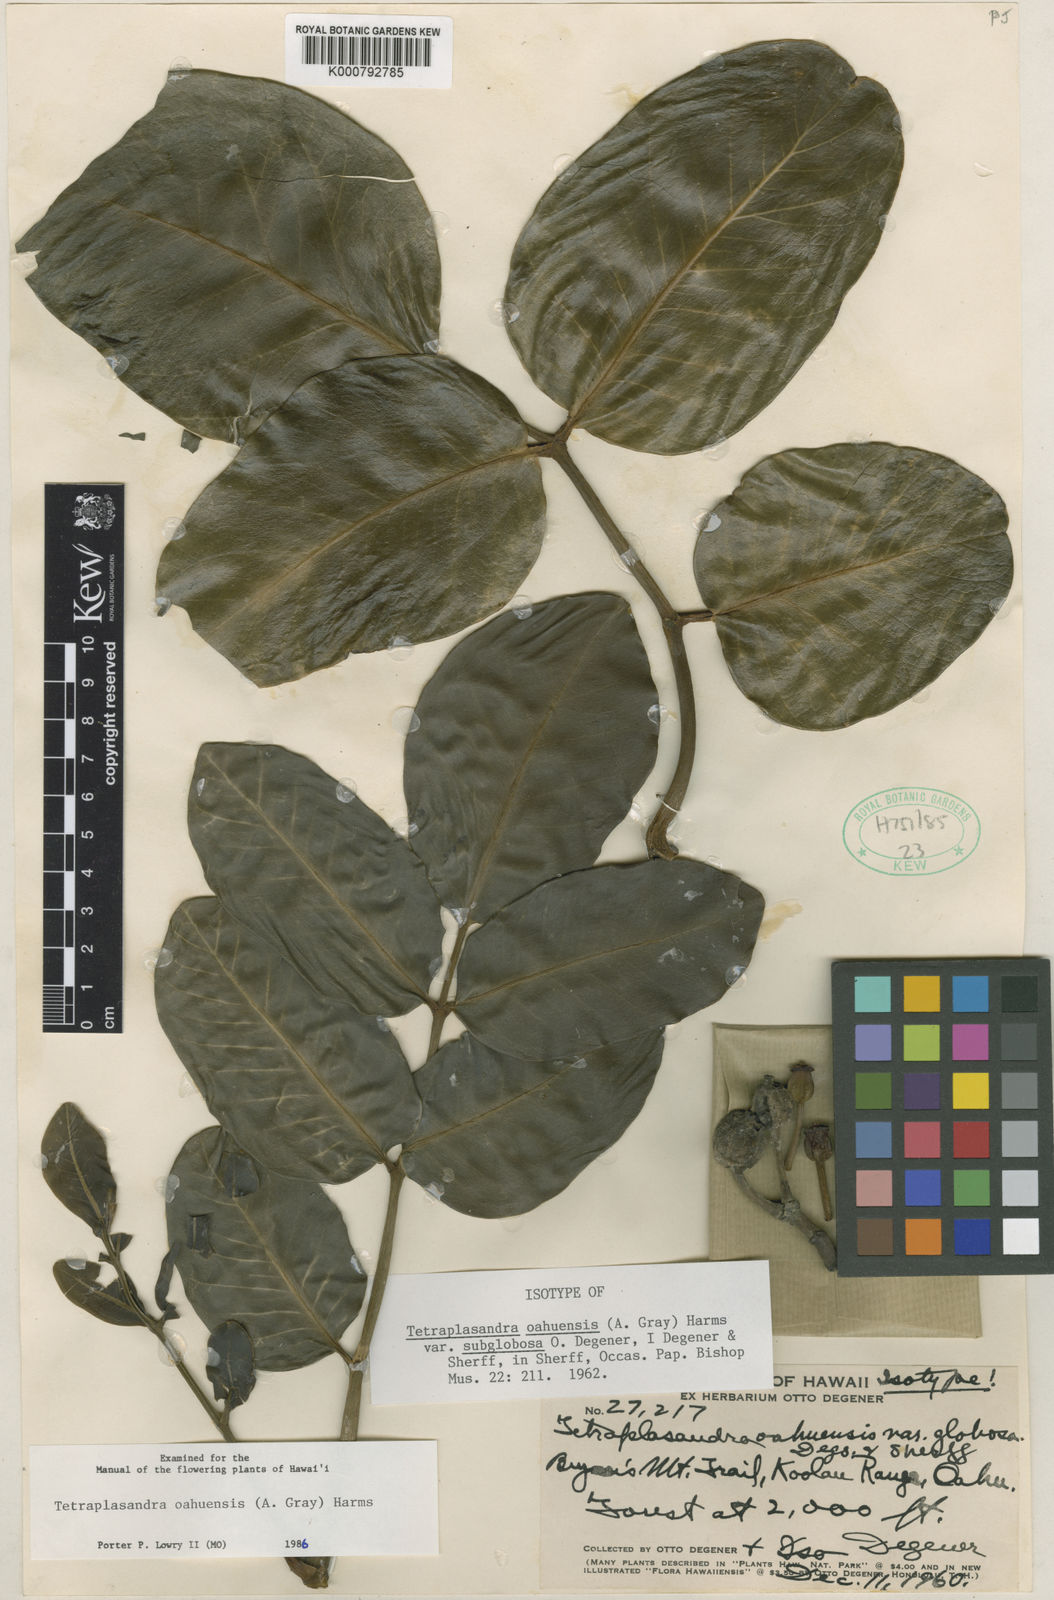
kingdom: Plantae
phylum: Tracheophyta
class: Magnoliopsida
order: Apiales
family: Araliaceae
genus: Polyscias
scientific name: Polyscias oahuensis
